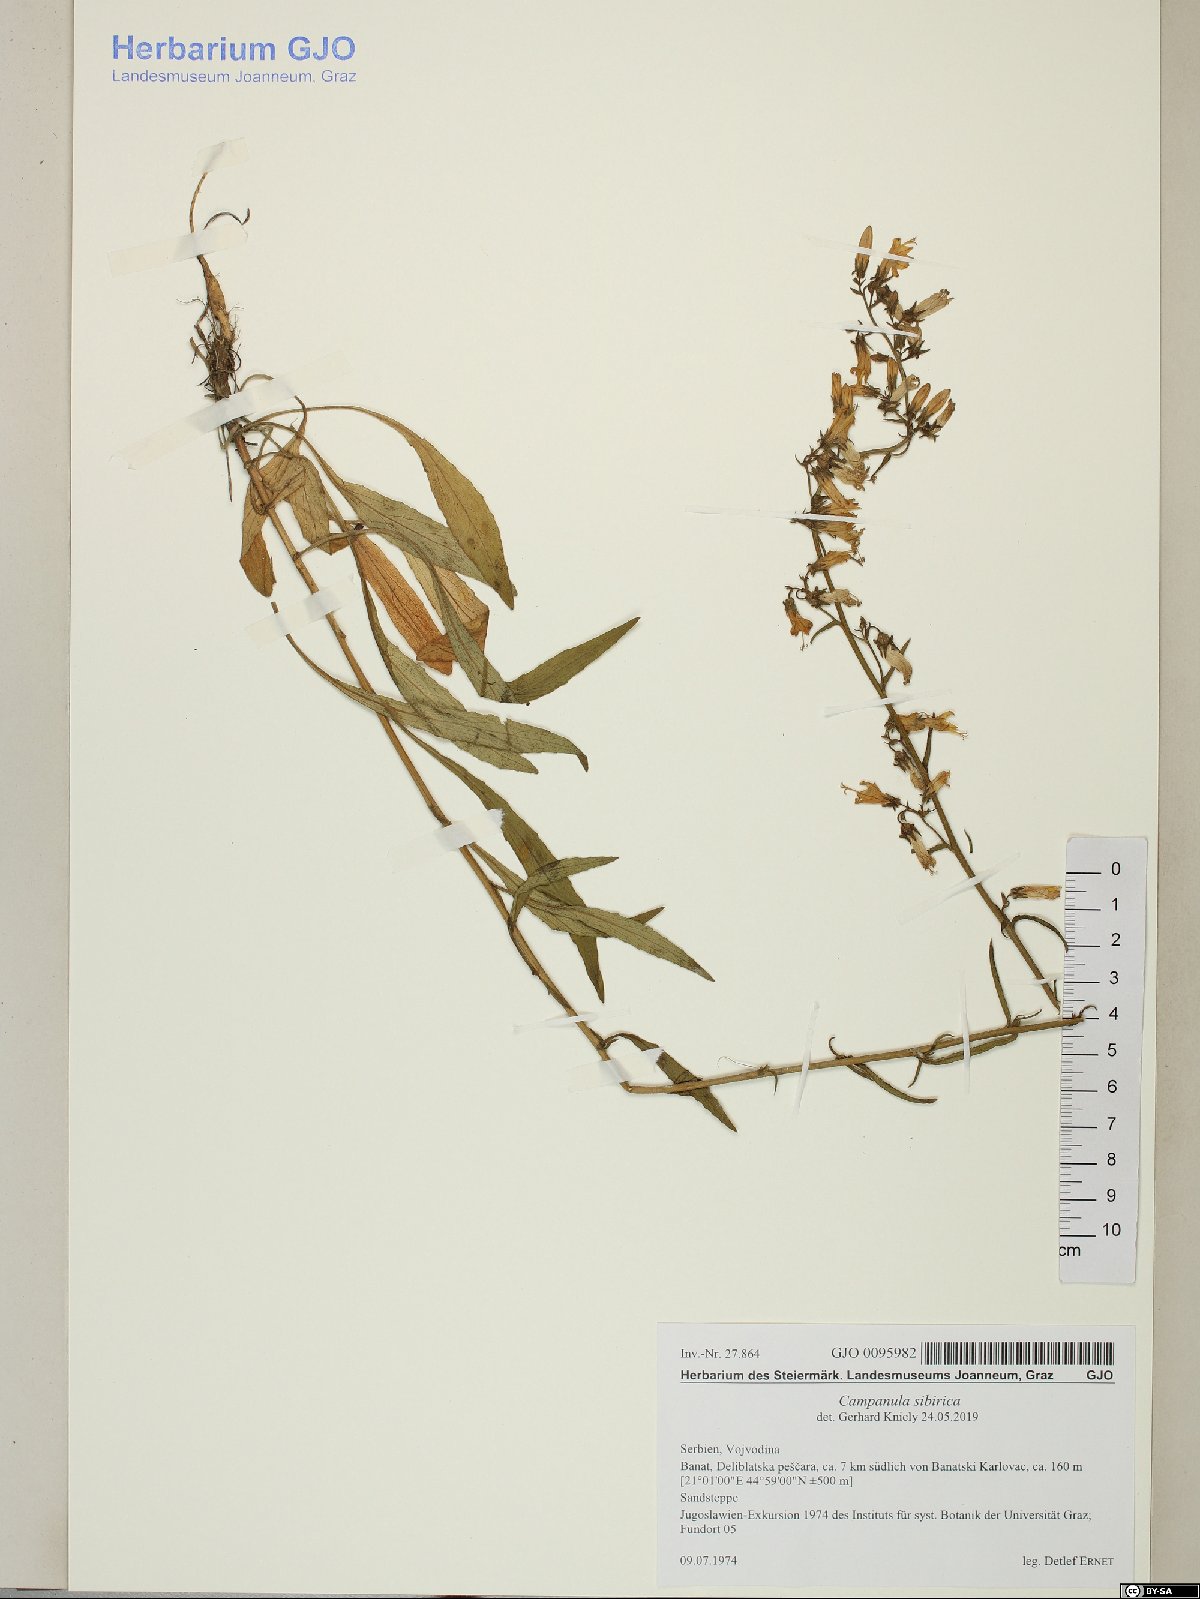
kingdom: Plantae
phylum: Tracheophyta
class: Magnoliopsida
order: Asterales
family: Campanulaceae
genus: Campanula
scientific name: Campanula sibirica
